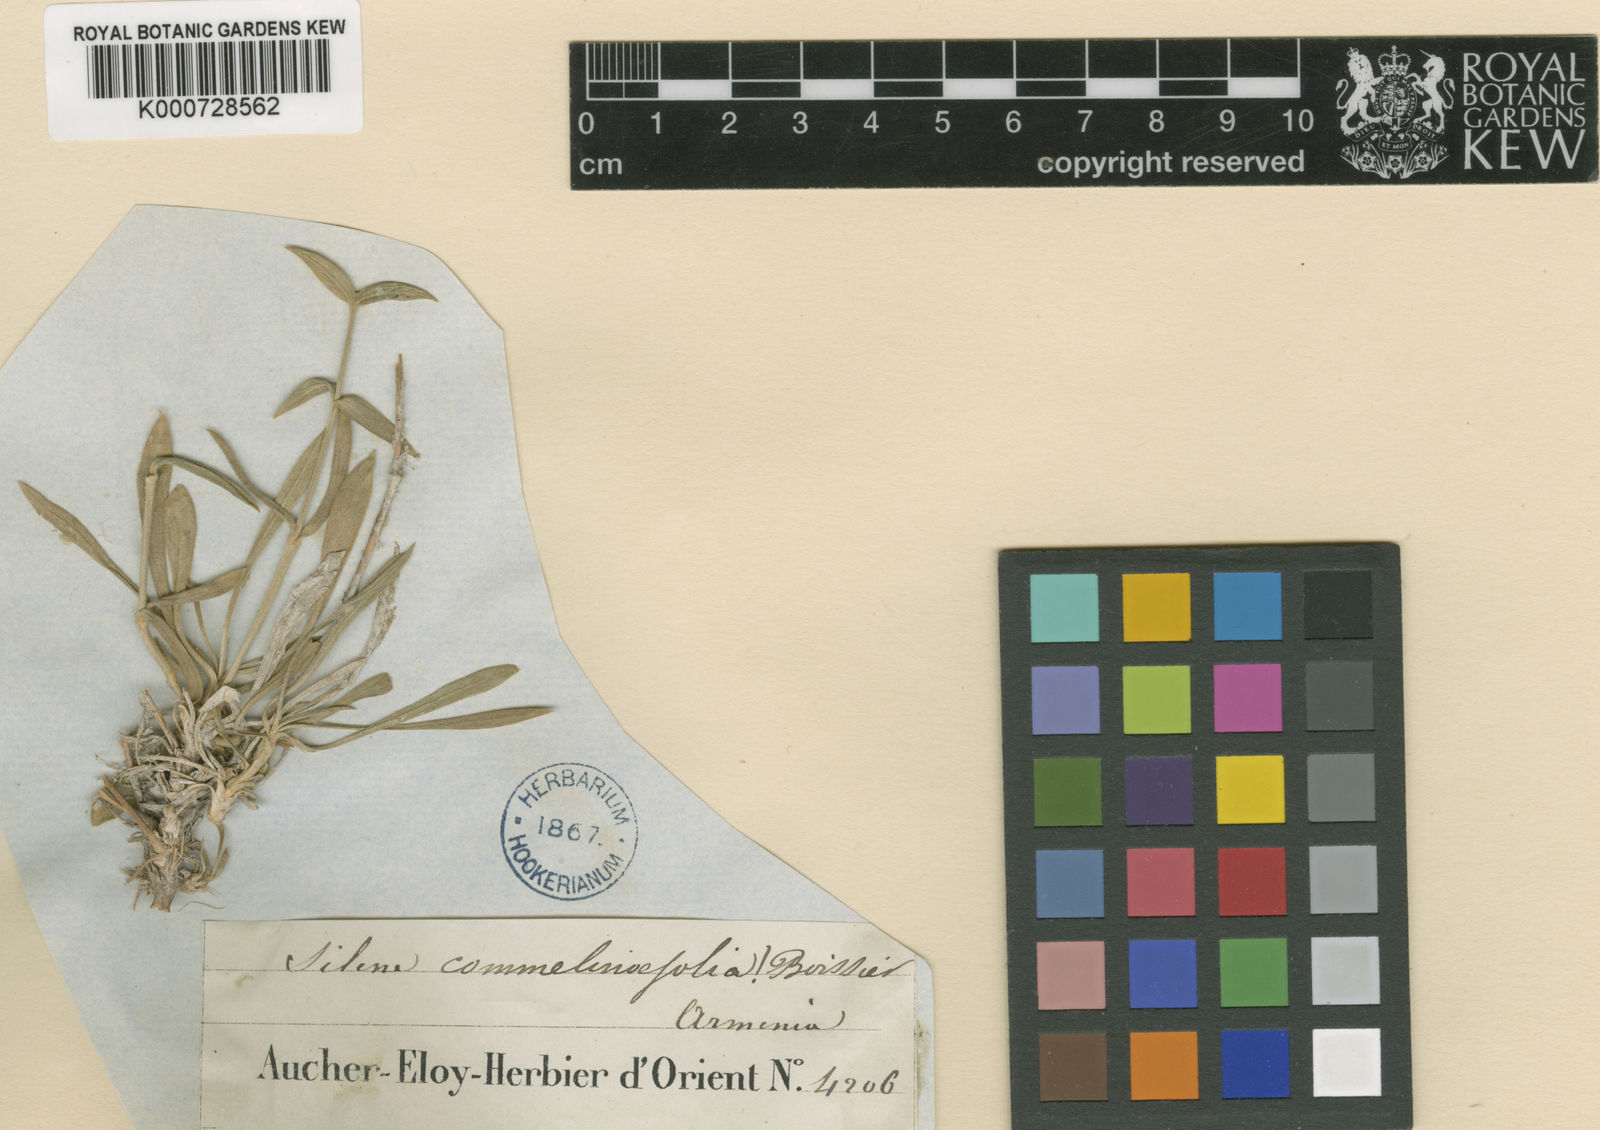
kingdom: Plantae
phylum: Tracheophyta
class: Magnoliopsida
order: Caryophyllales
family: Caryophyllaceae
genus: Silene
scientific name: Silene commelinifolia
